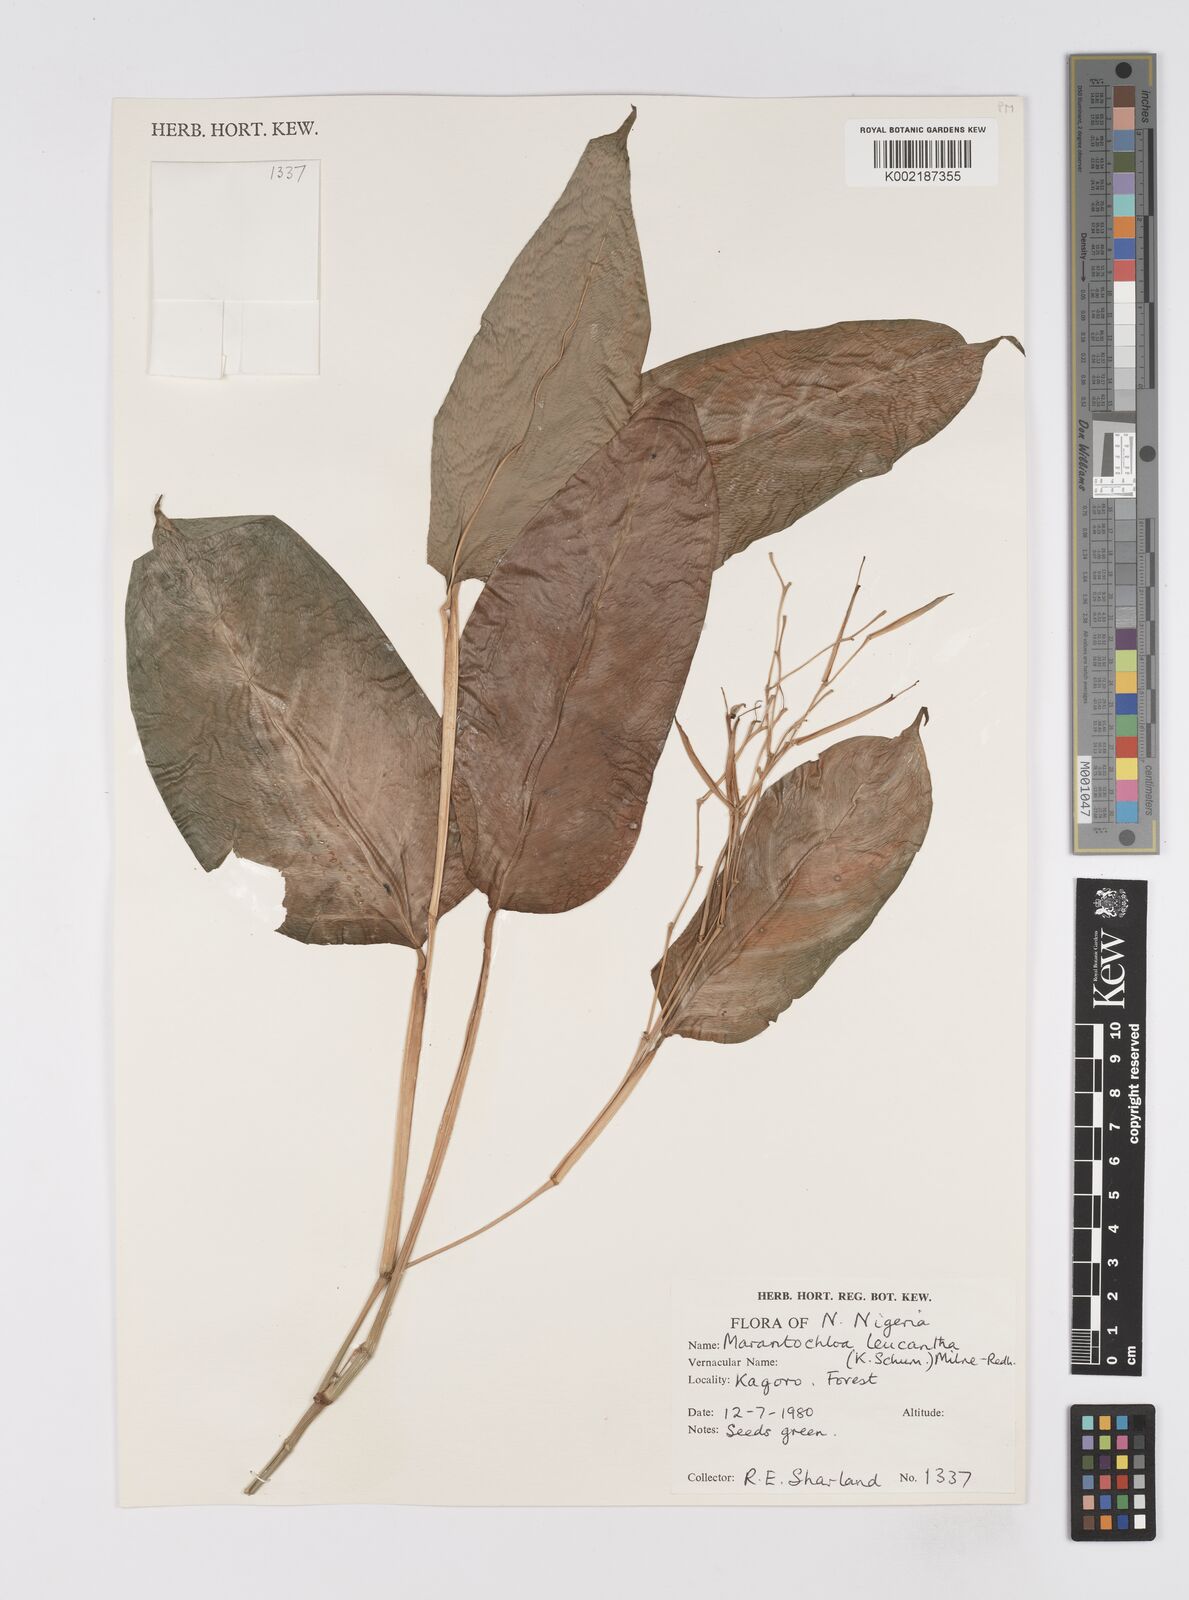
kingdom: Plantae
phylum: Tracheophyta
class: Liliopsida
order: Zingiberales
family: Marantaceae
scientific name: Marantaceae
